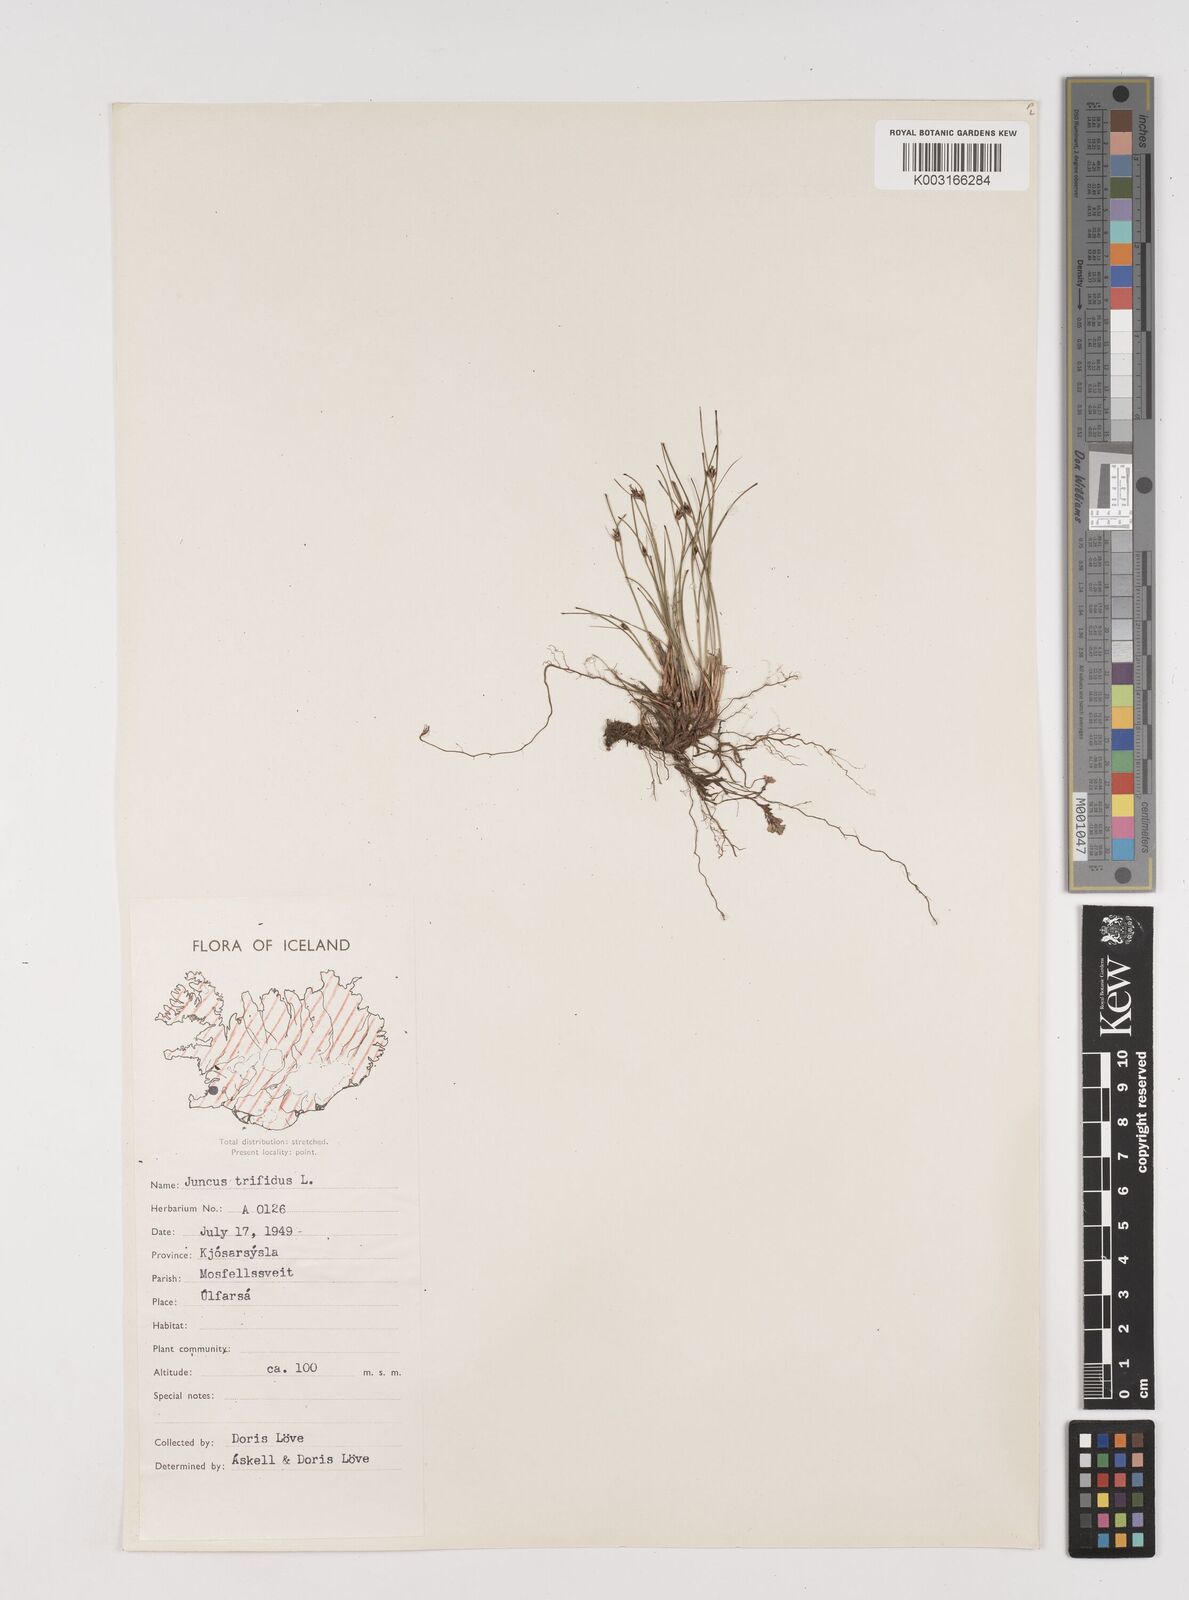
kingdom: Plantae
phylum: Tracheophyta
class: Liliopsida
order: Poales
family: Juncaceae
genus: Oreojuncus
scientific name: Oreojuncus trifidus
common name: Highland rush
